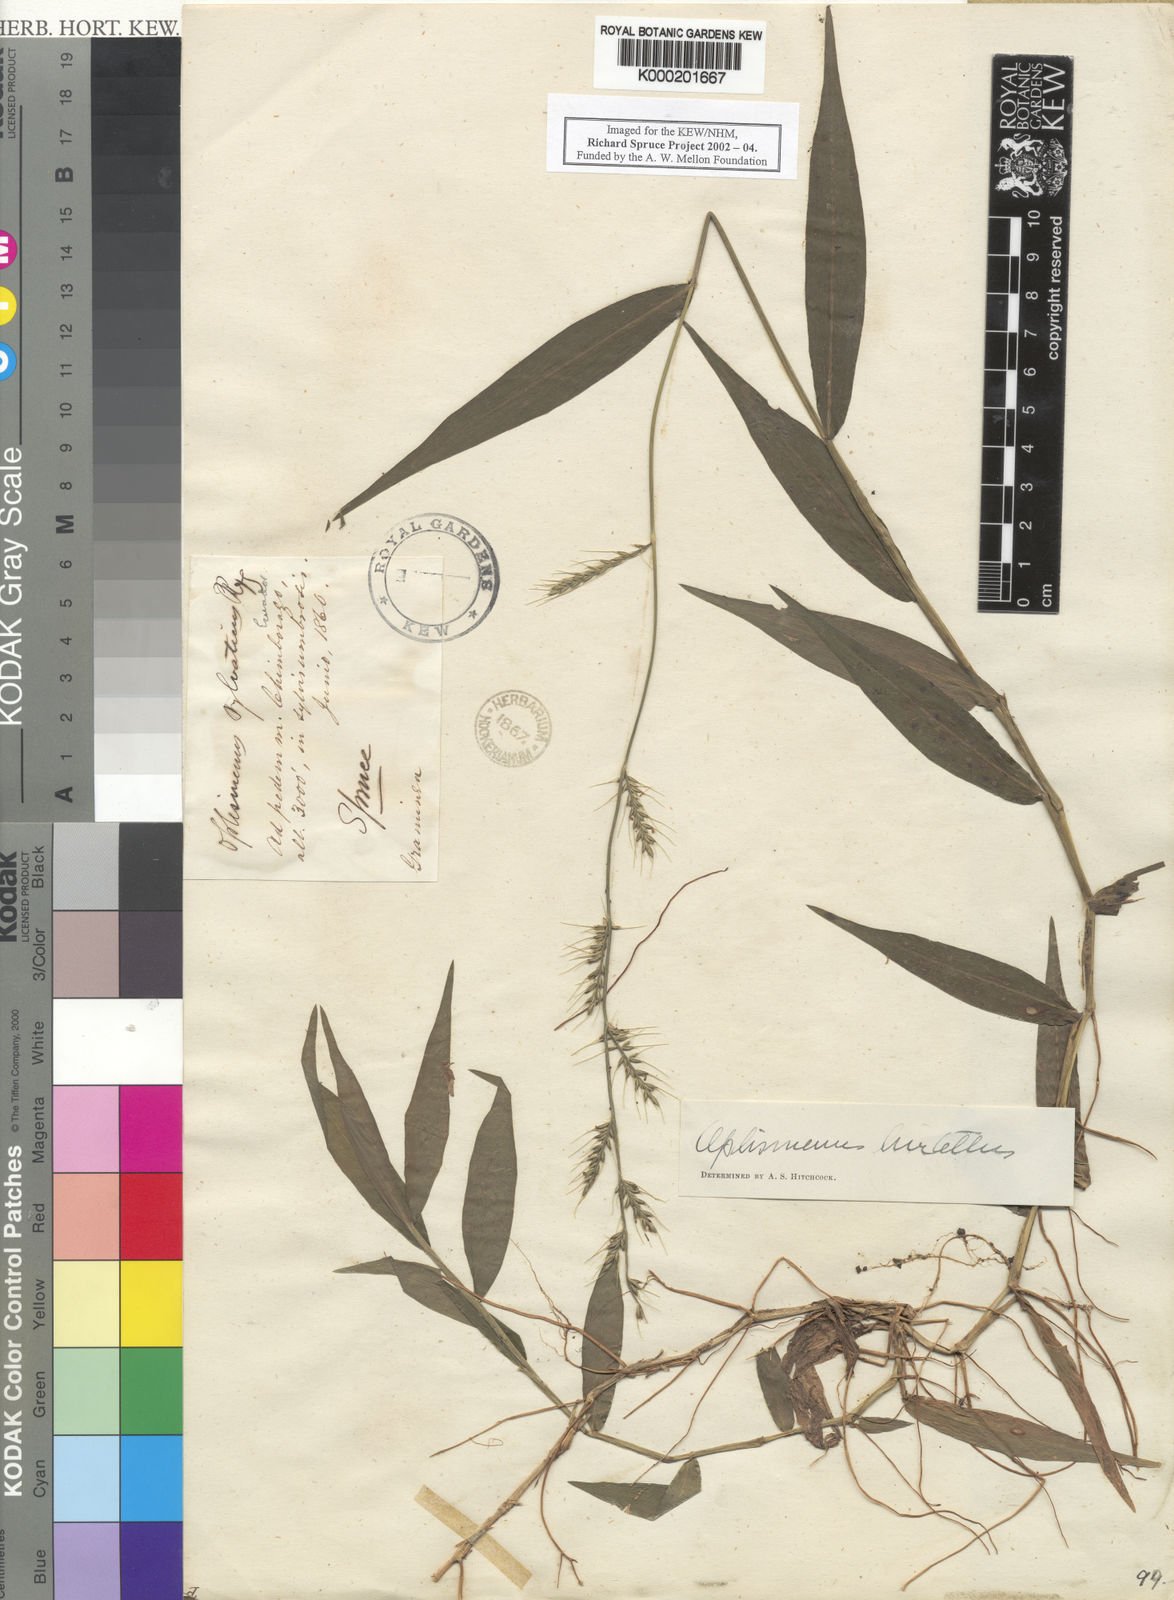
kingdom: Plantae
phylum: Tracheophyta
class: Liliopsida
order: Poales
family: Poaceae
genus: Oplismenus
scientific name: Oplismenus hirtellus
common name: Basketgrass
